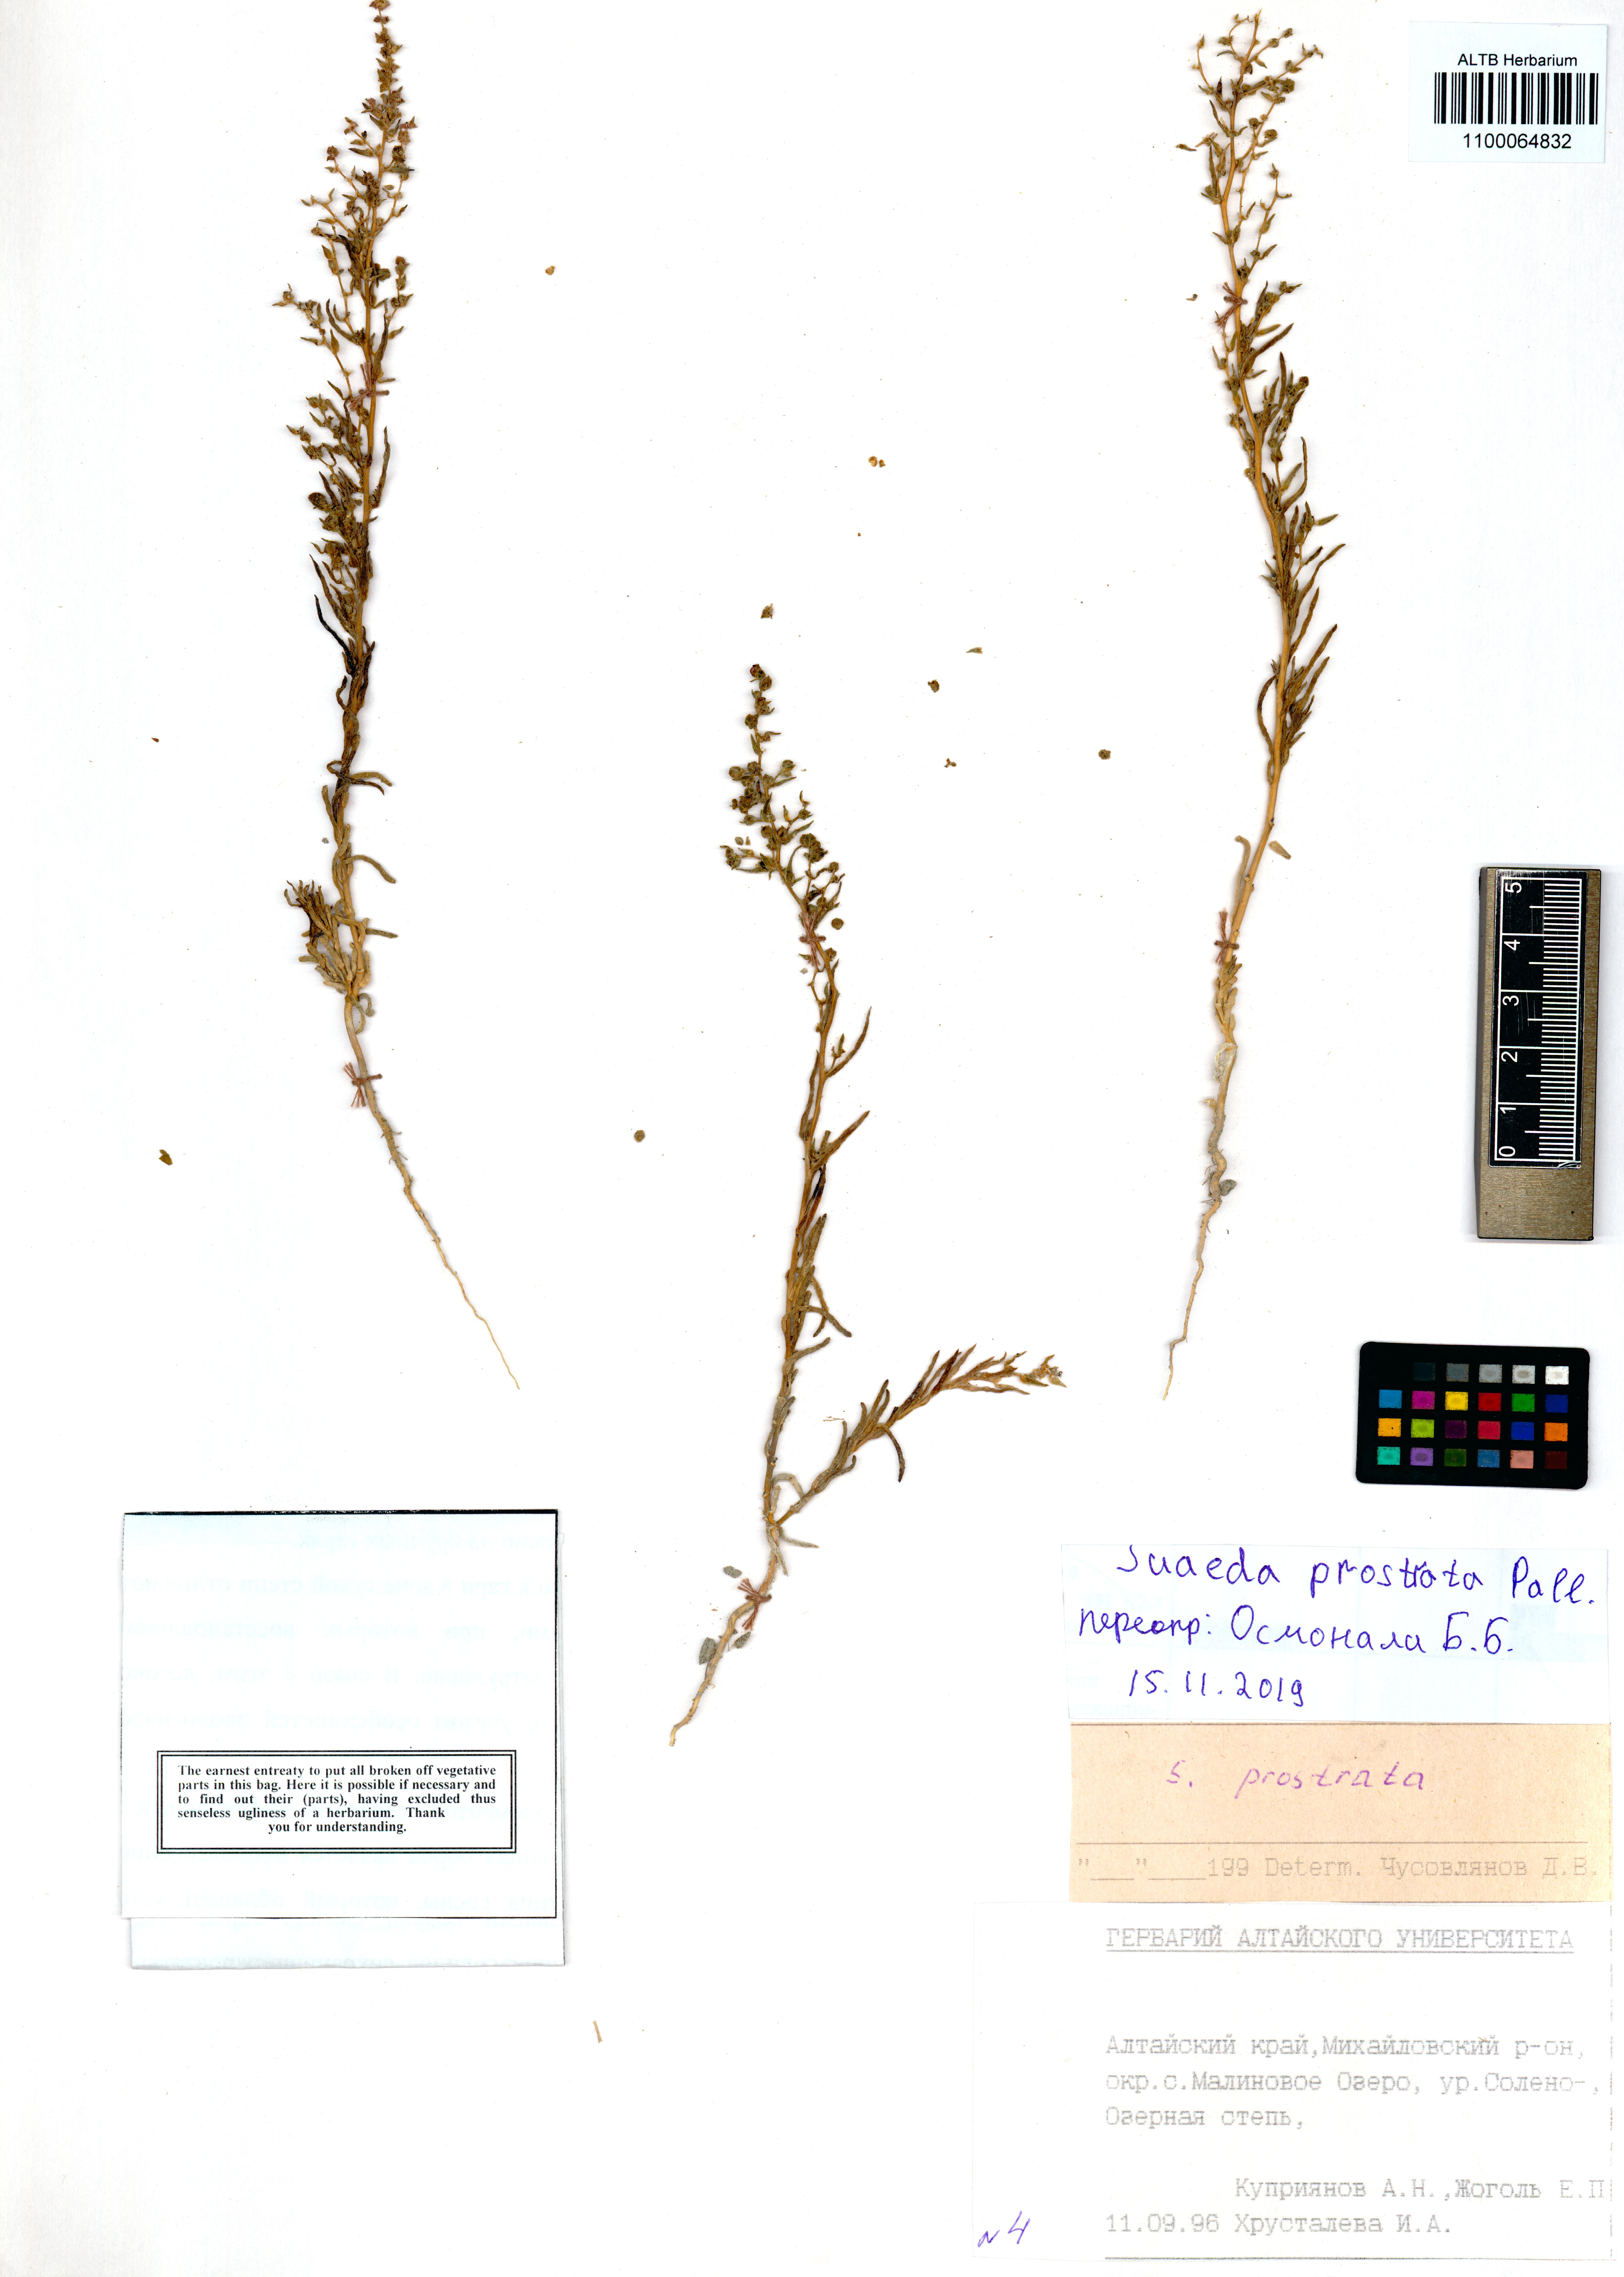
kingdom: Plantae
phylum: Tracheophyta
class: Magnoliopsida
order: Caryophyllales
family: Amaranthaceae
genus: Suaeda
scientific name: Suaeda prostrata
